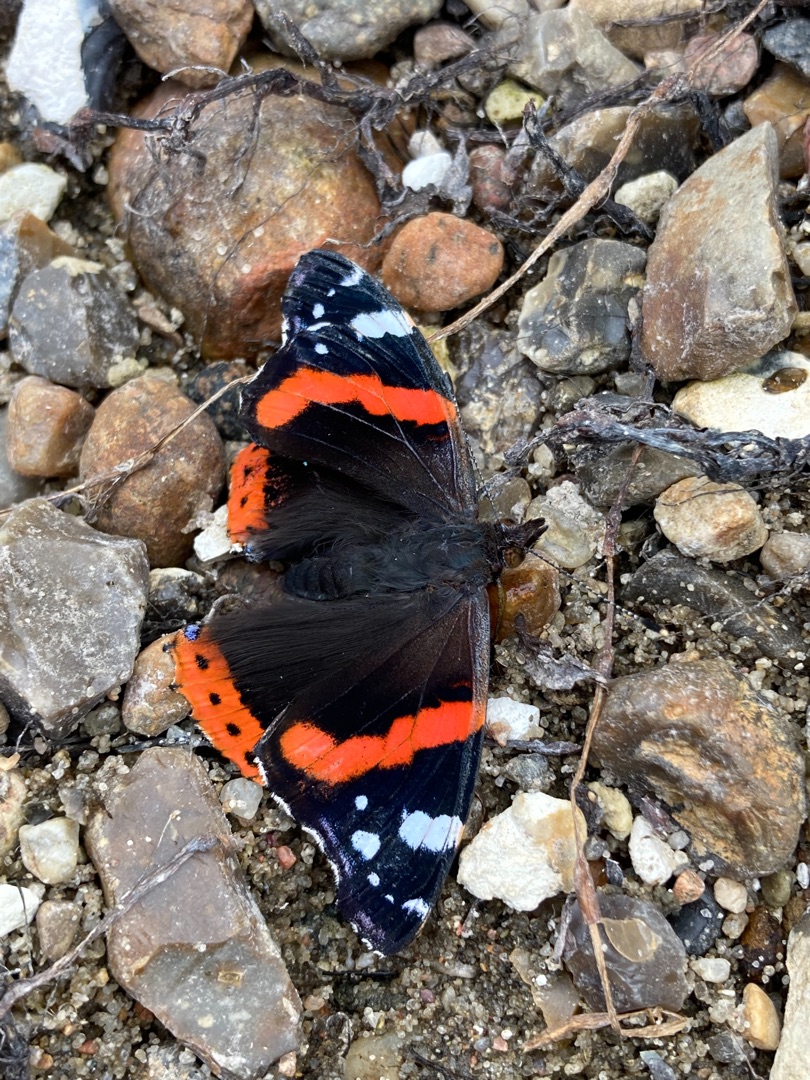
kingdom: Animalia
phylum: Arthropoda
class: Insecta
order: Lepidoptera
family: Nymphalidae
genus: Vanessa
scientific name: Vanessa atalanta
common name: Admiral
